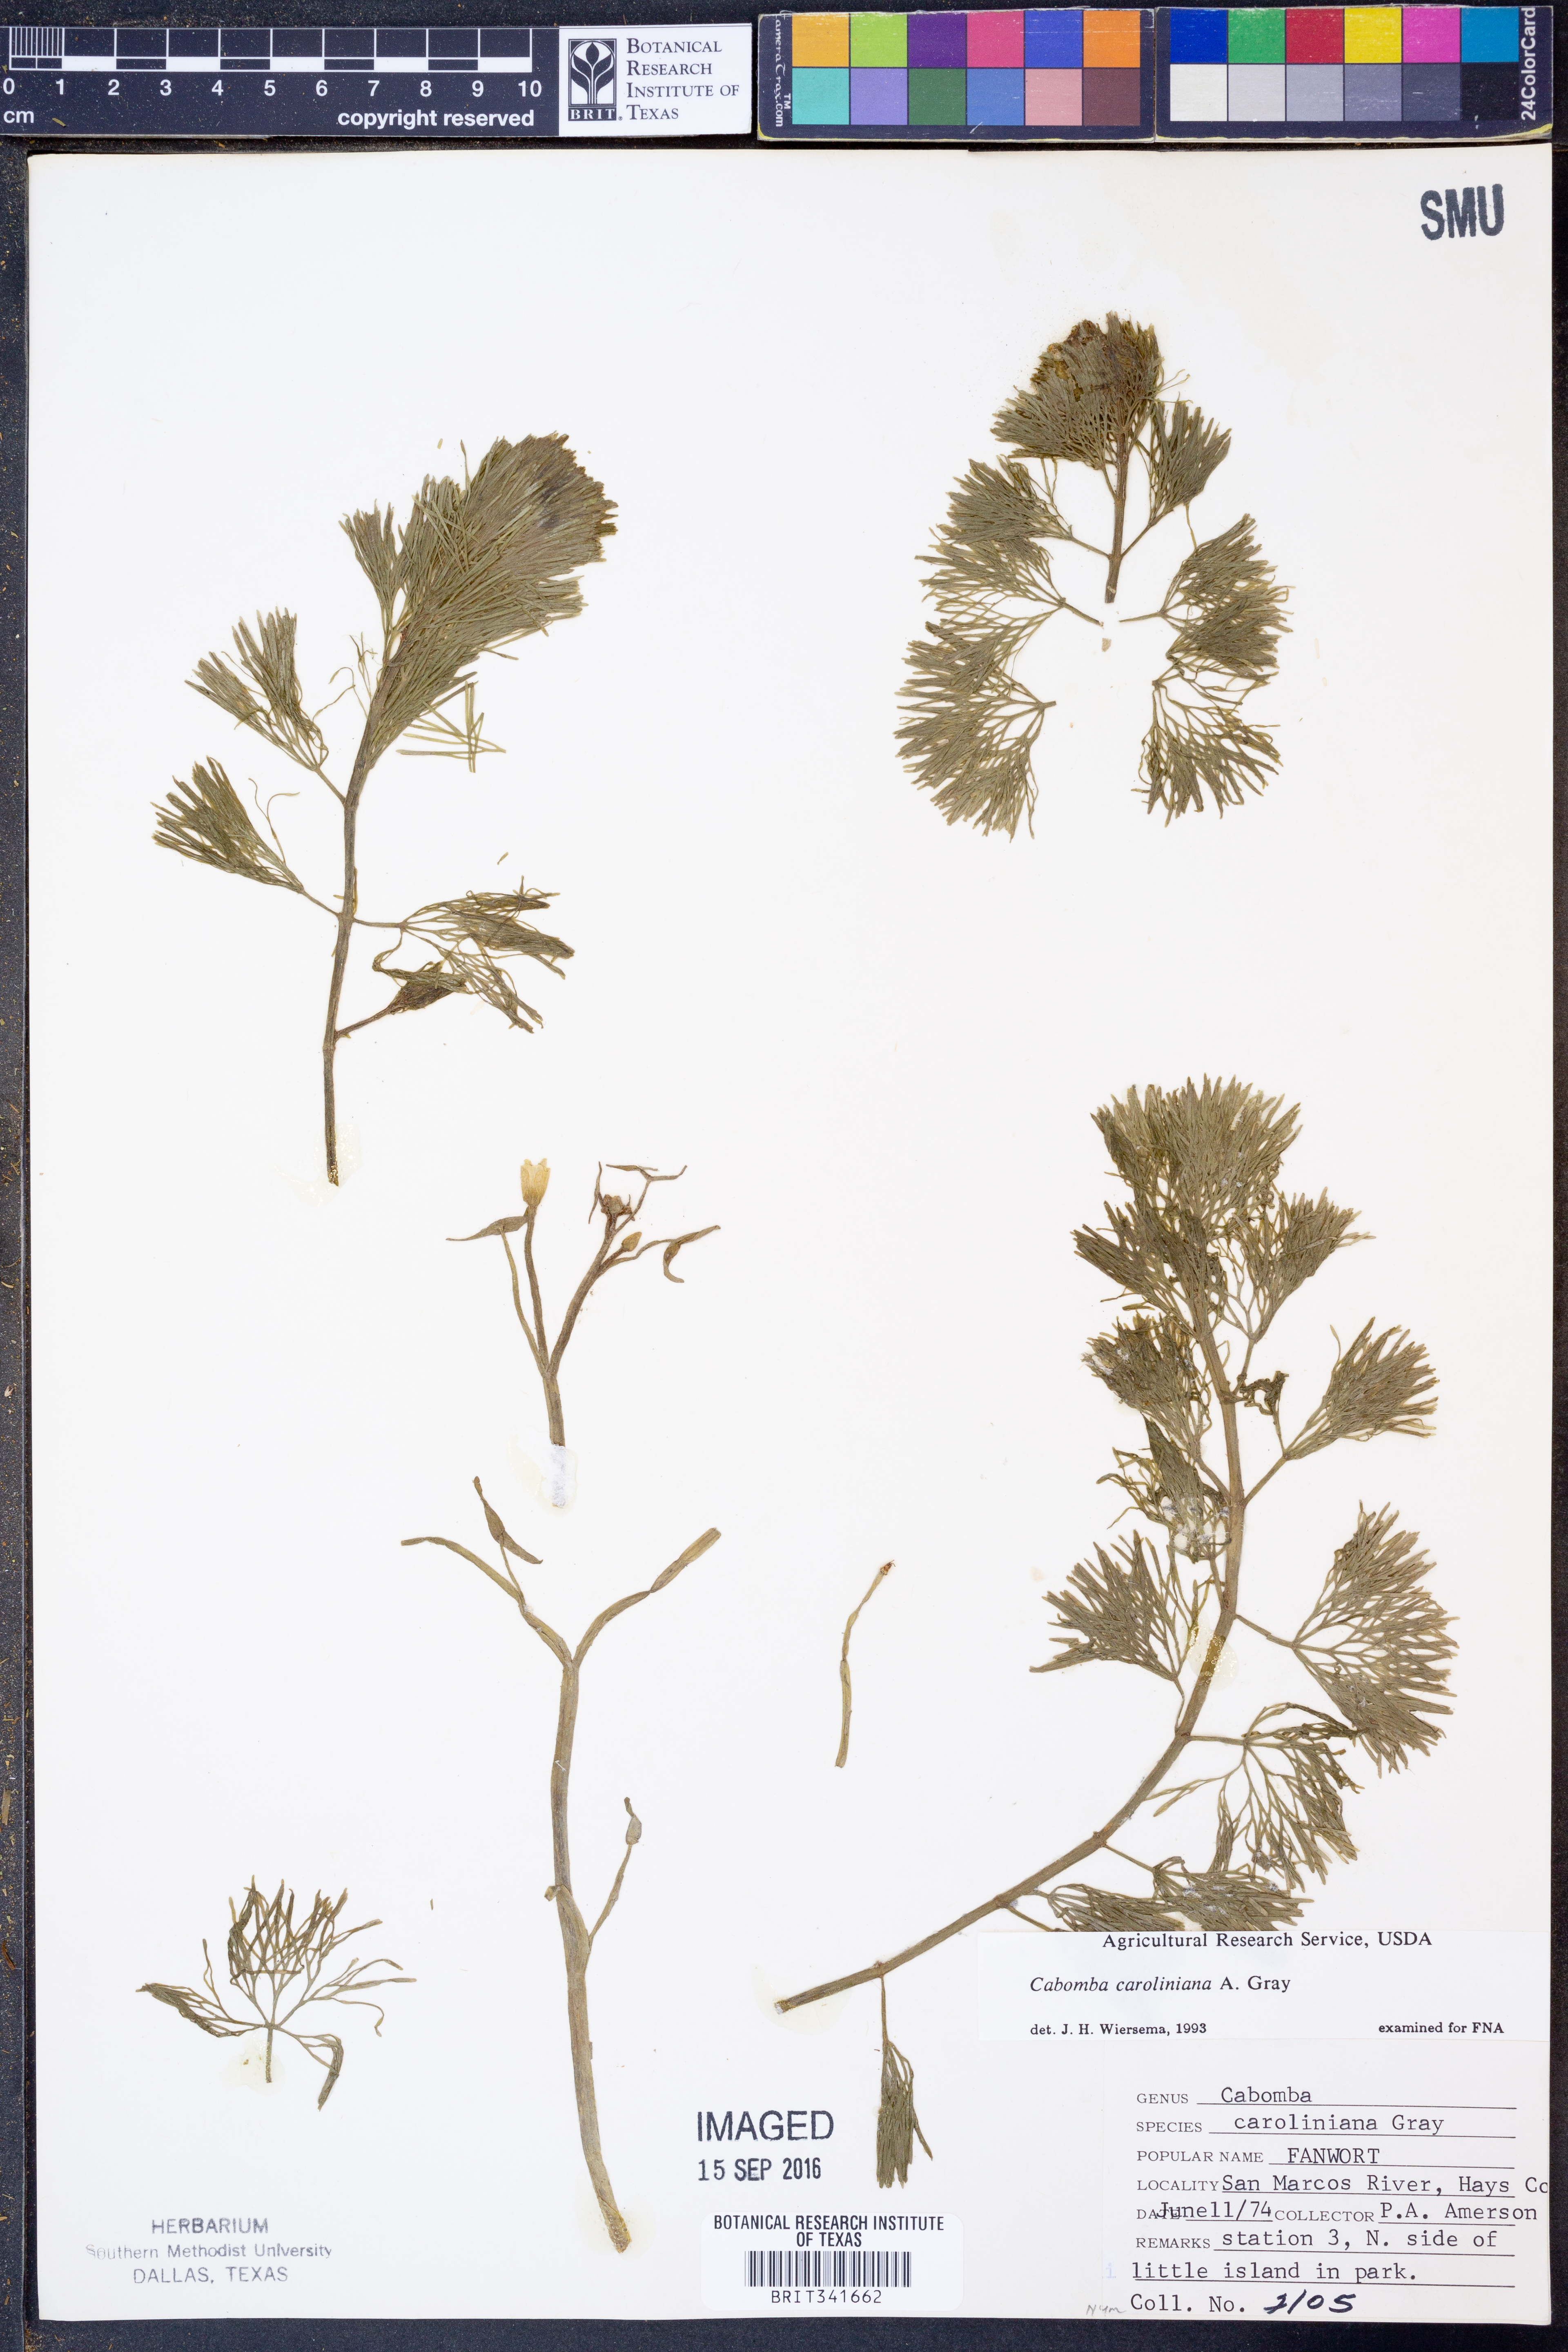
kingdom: Plantae
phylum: Tracheophyta
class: Magnoliopsida
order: Nymphaeales
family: Cabombaceae
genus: Cabomba
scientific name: Cabomba caroliniana
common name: Fanwort
